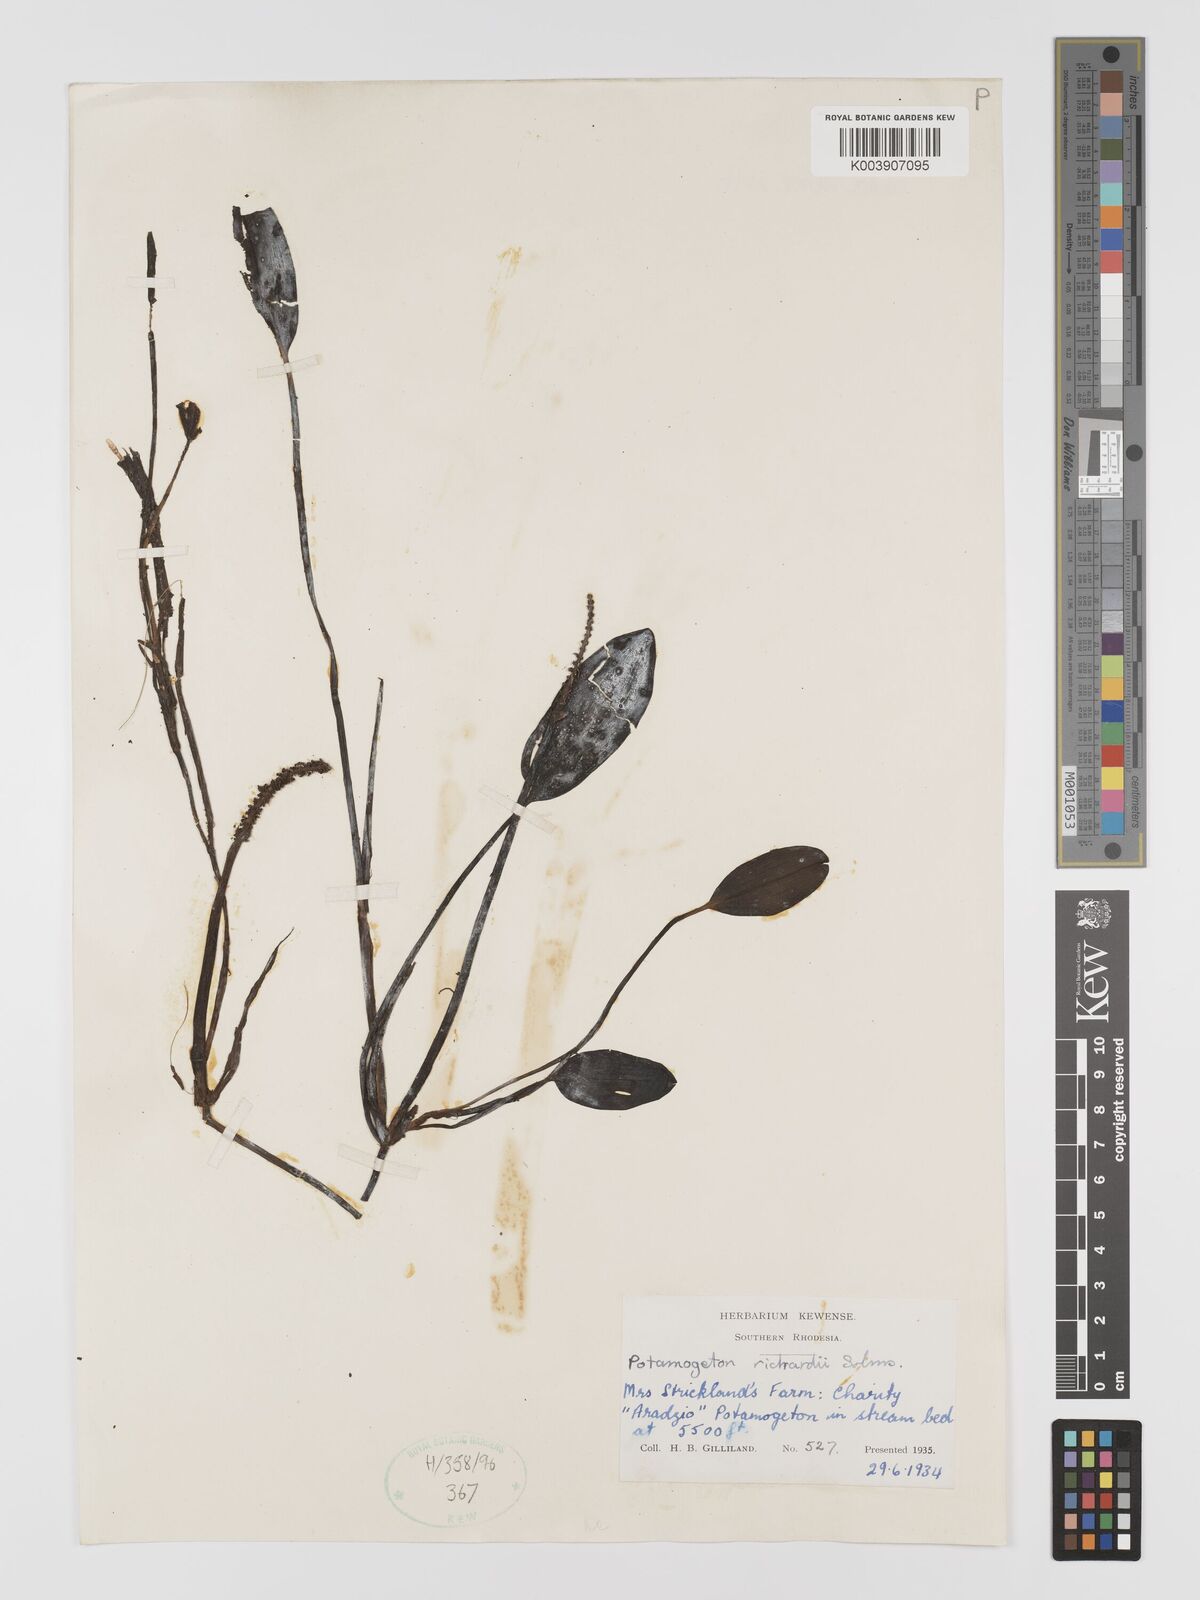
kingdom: Plantae
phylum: Tracheophyta
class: Liliopsida
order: Alismatales
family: Potamogetonaceae
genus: Potamogeton
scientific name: Potamogeton nodosus
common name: Loddon pondweed
